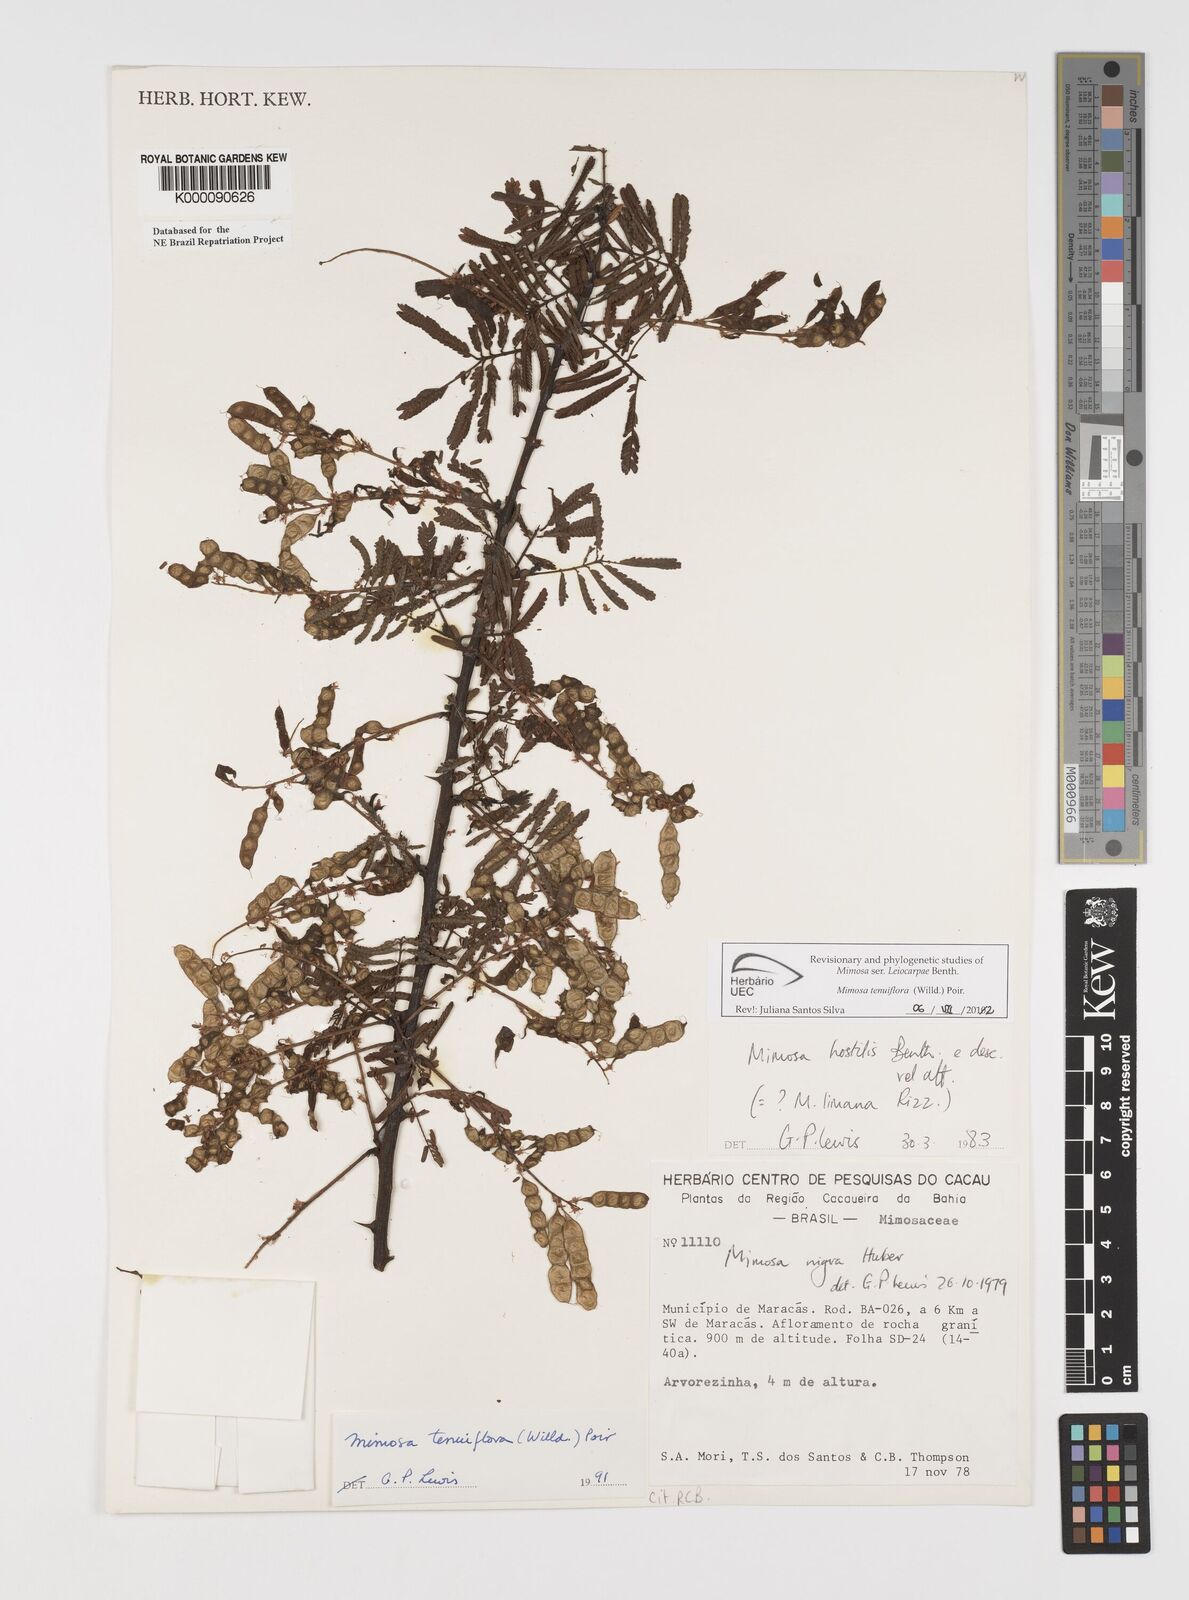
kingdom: Plantae
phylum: Tracheophyta
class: Magnoliopsida
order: Fabales
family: Fabaceae
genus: Mimosa
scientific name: Mimosa tenuiflora
